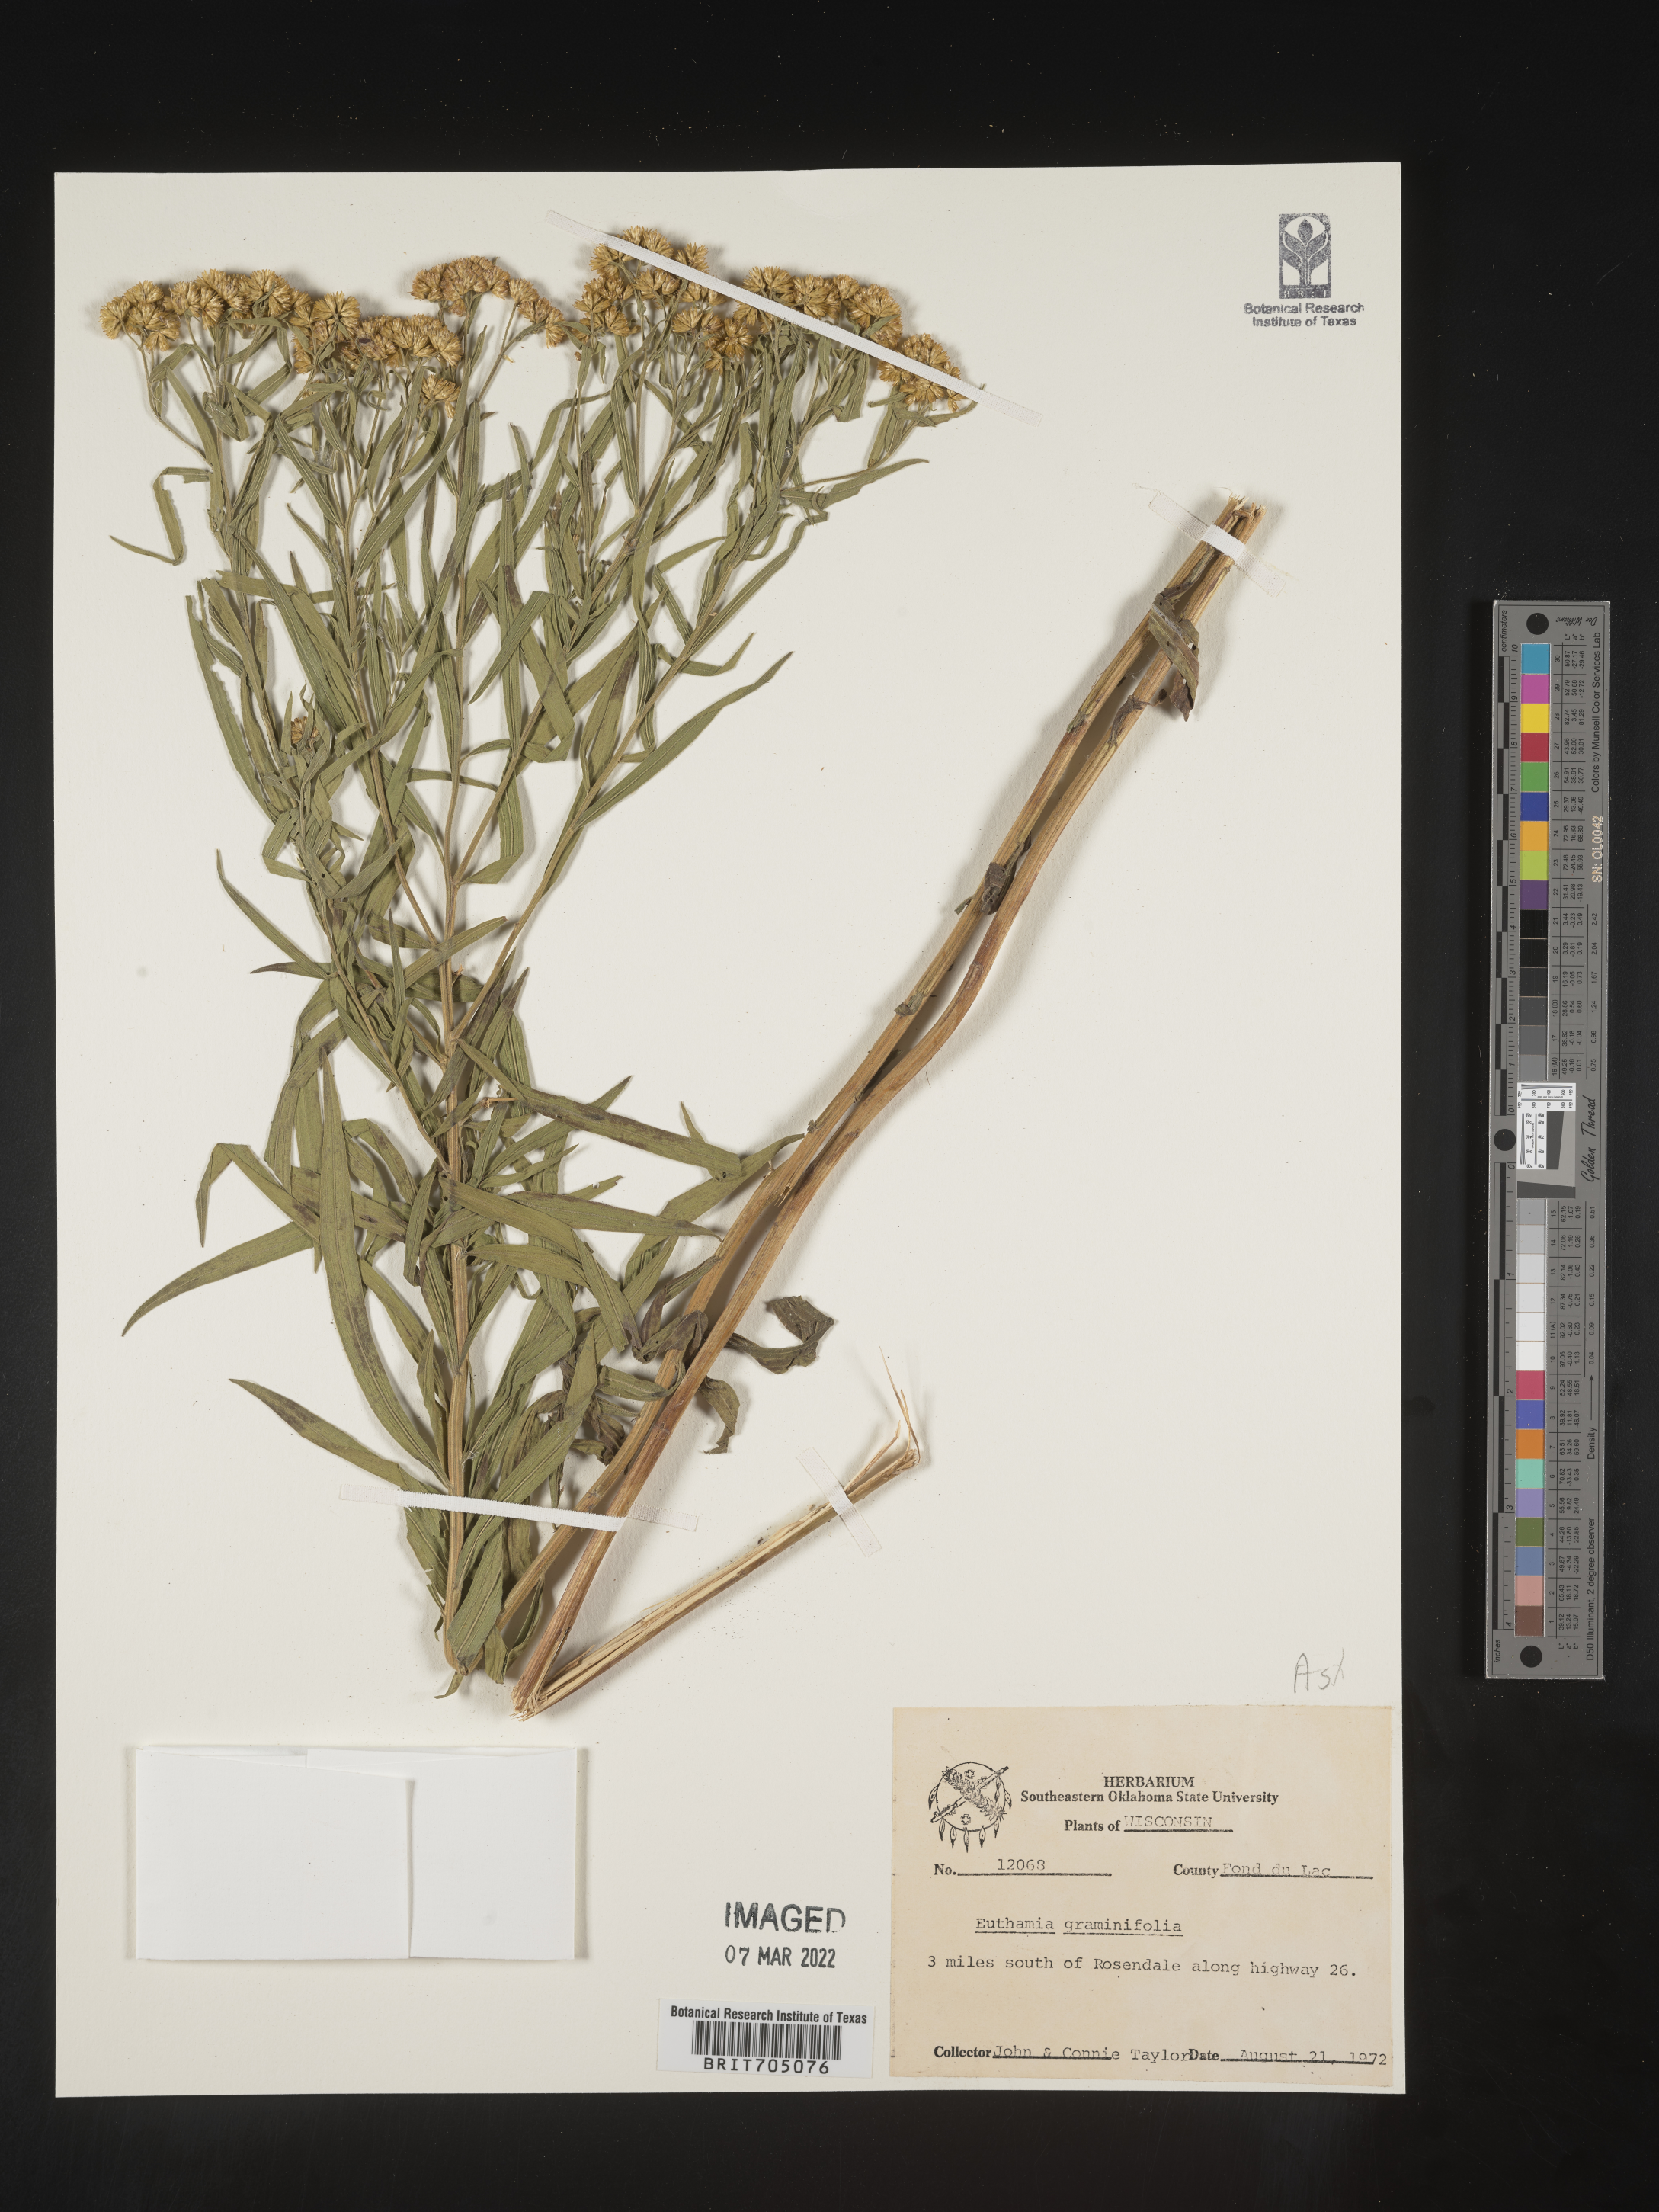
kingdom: Plantae
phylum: Tracheophyta
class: Magnoliopsida
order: Asterales
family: Asteraceae
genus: Euthamia
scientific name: Euthamia
